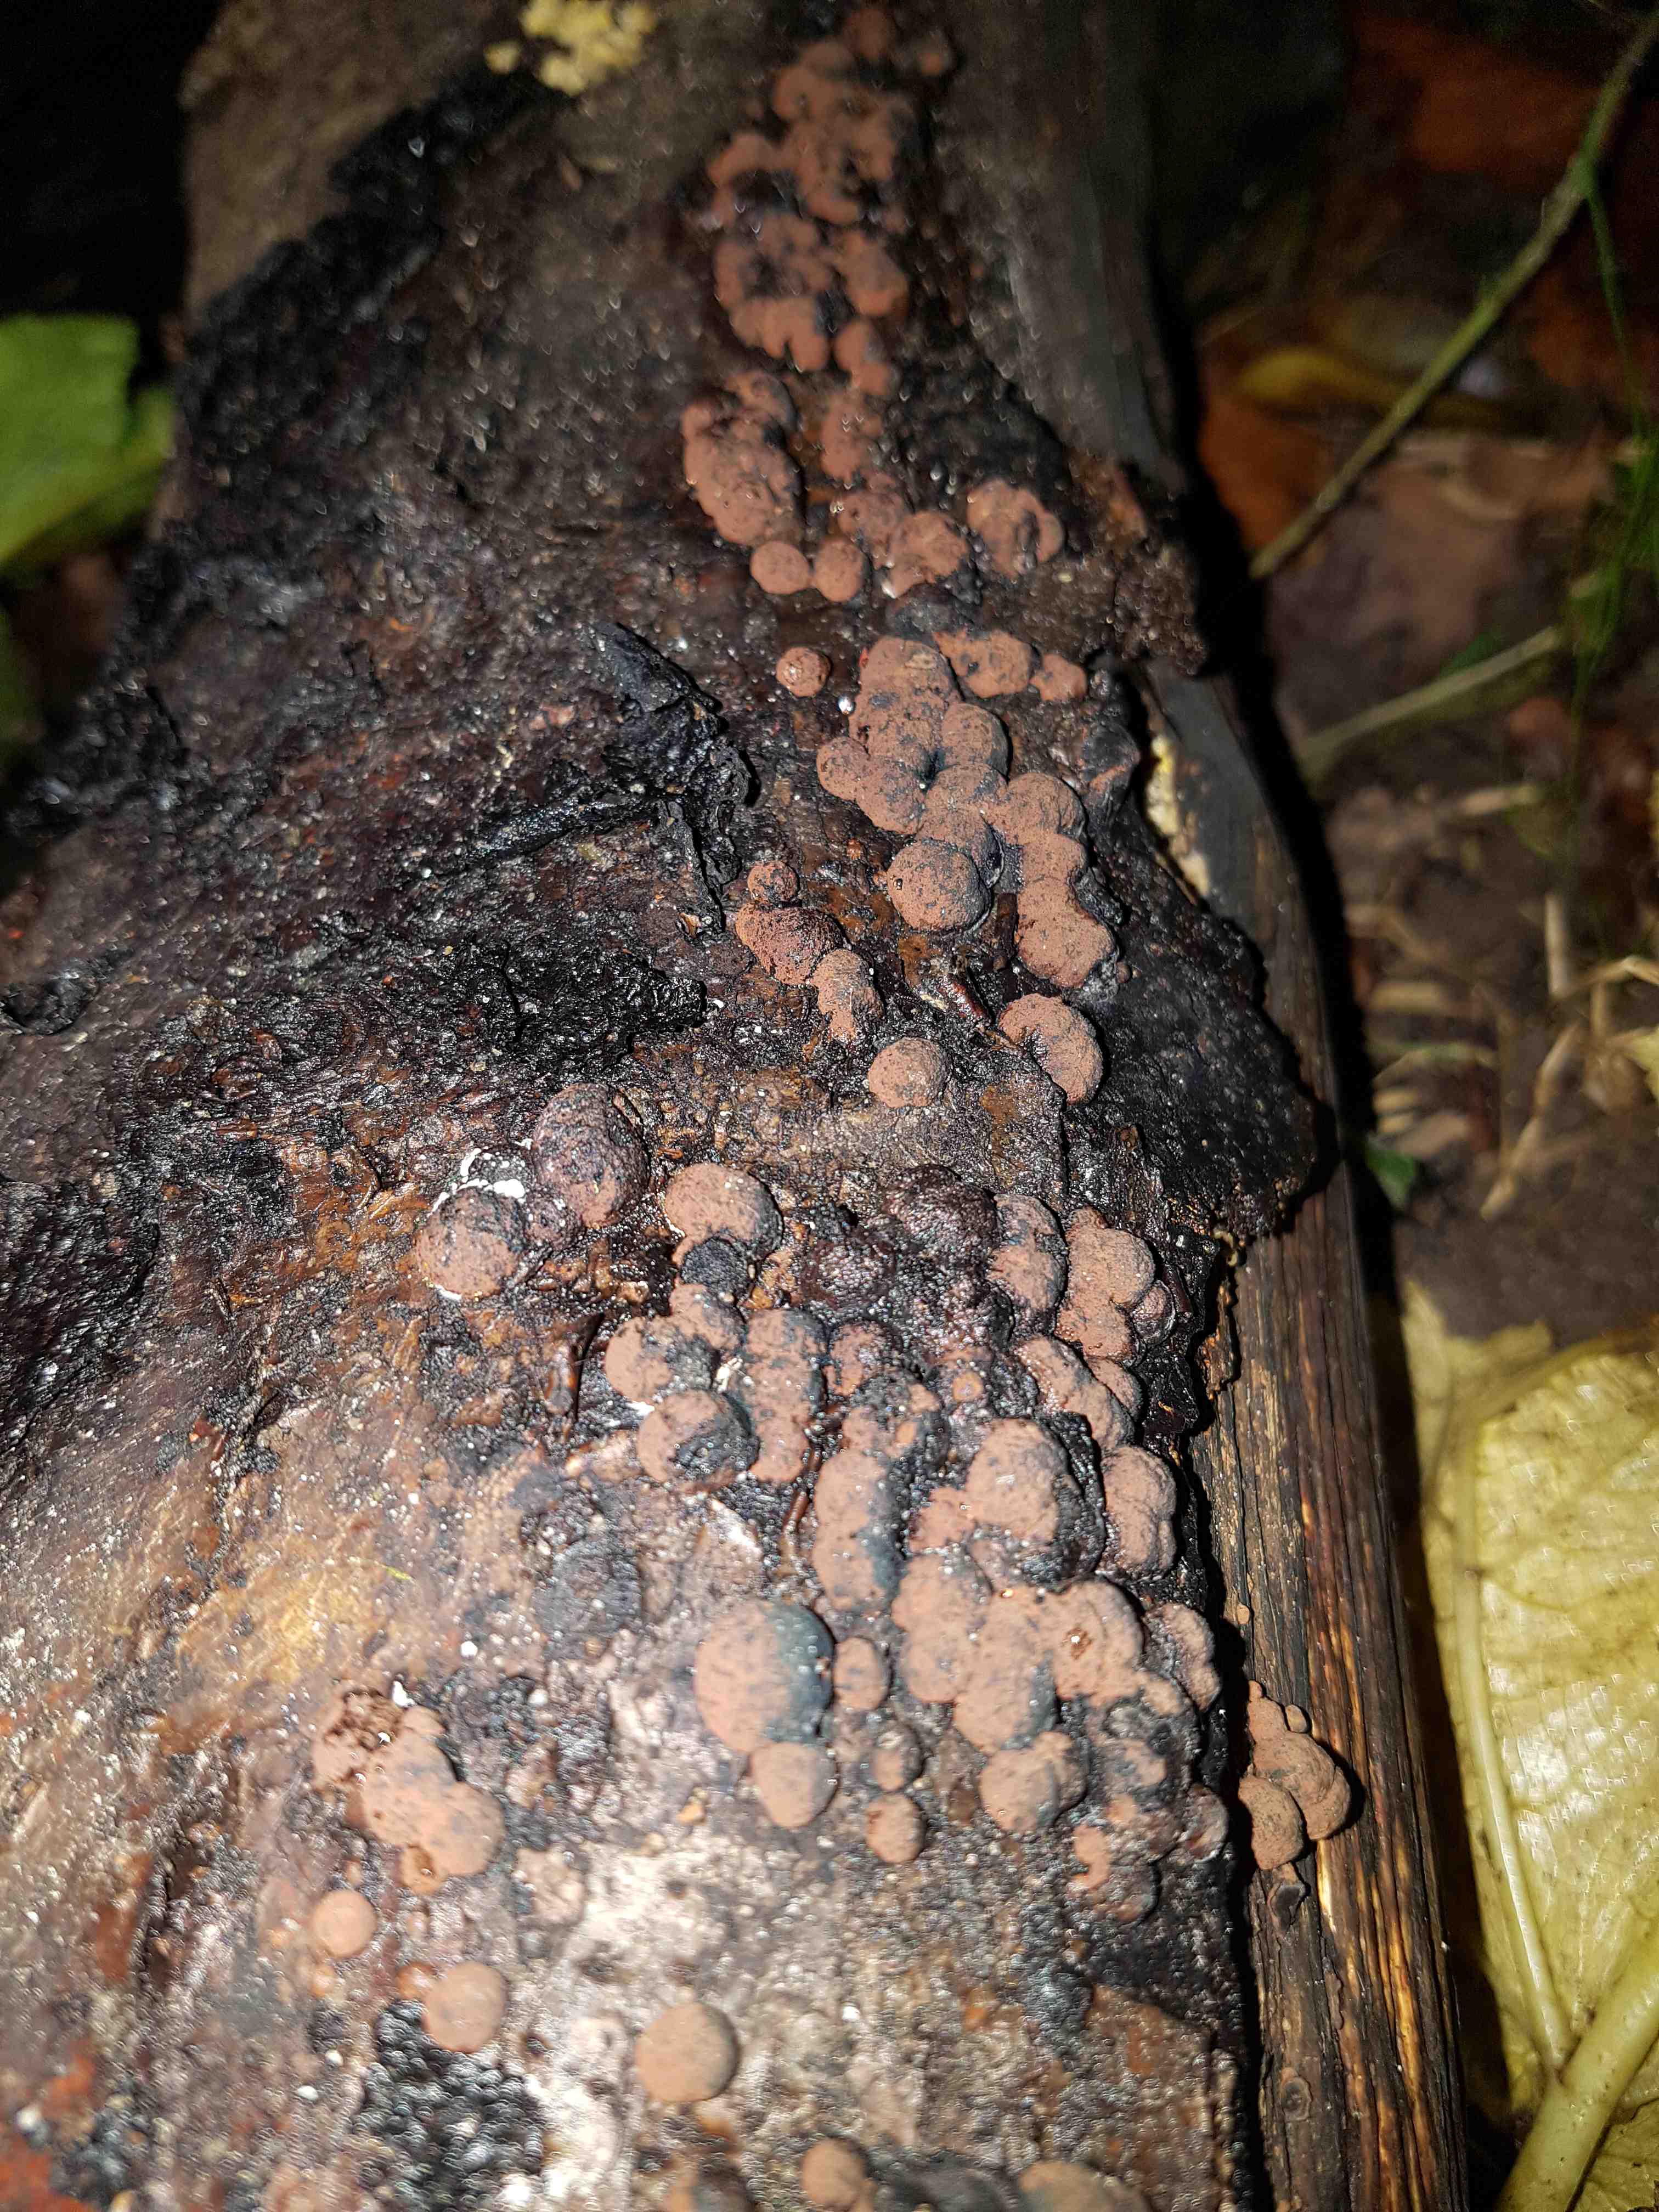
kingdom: Fungi
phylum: Ascomycota
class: Sordariomycetes
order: Xylariales
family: Hypoxylaceae
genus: Hypoxylon
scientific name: Hypoxylon fragiforme
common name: kuljordbær
